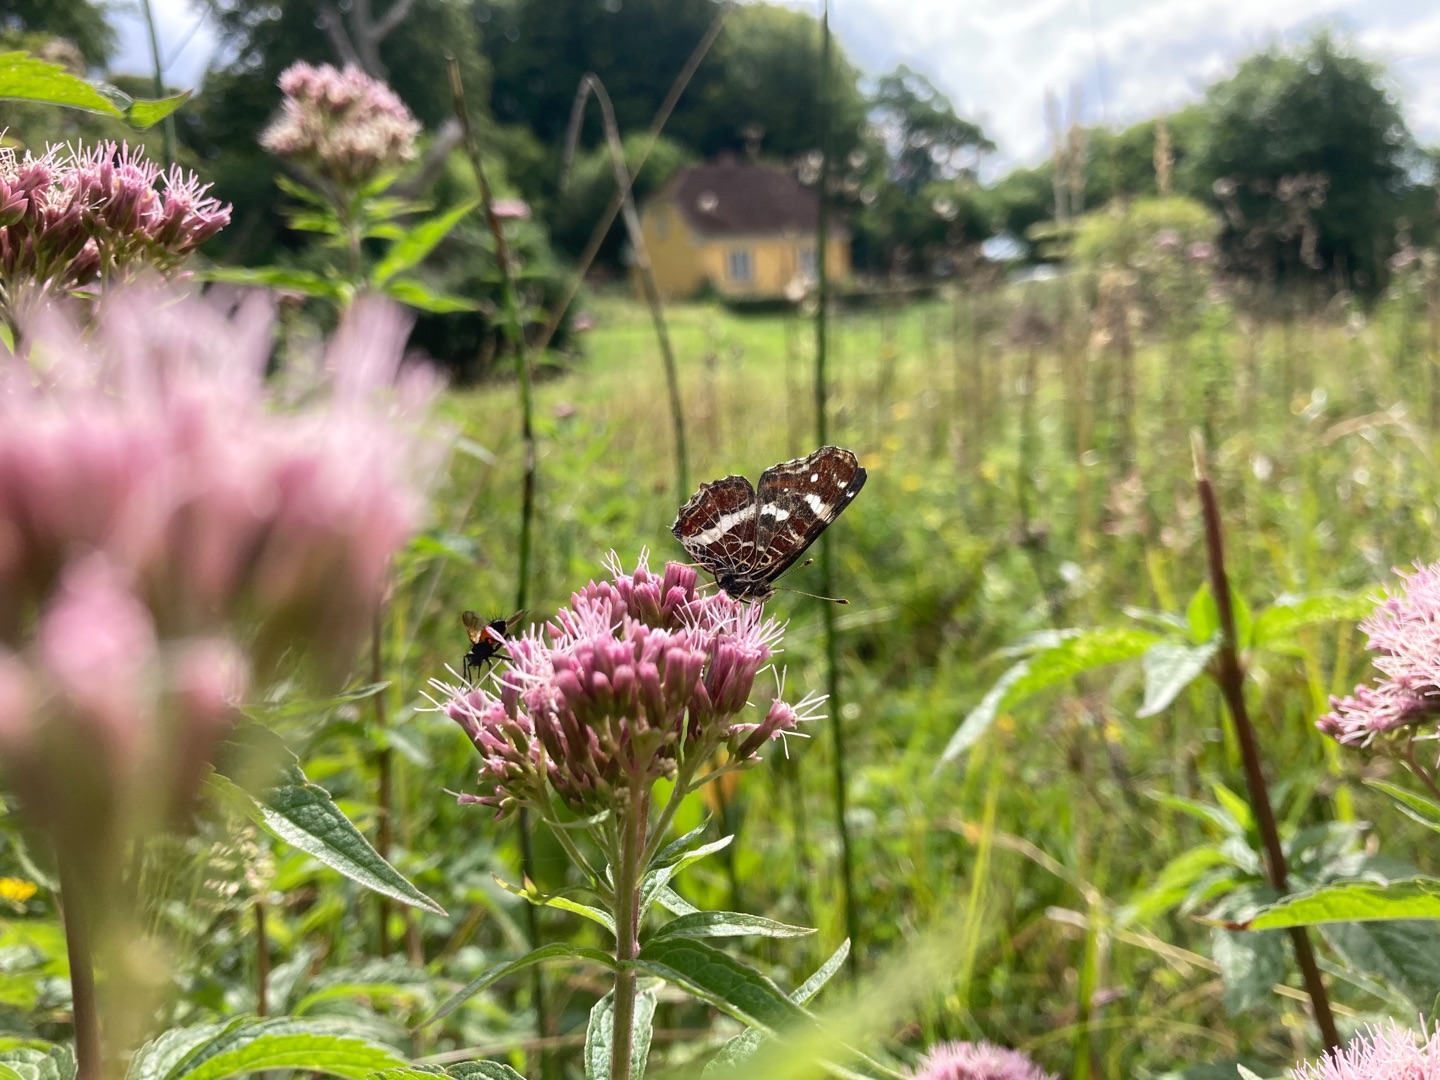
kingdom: Animalia
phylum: Arthropoda
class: Insecta
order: Lepidoptera
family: Nymphalidae
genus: Araschnia
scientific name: Araschnia levana
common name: Nældesommerfugl
